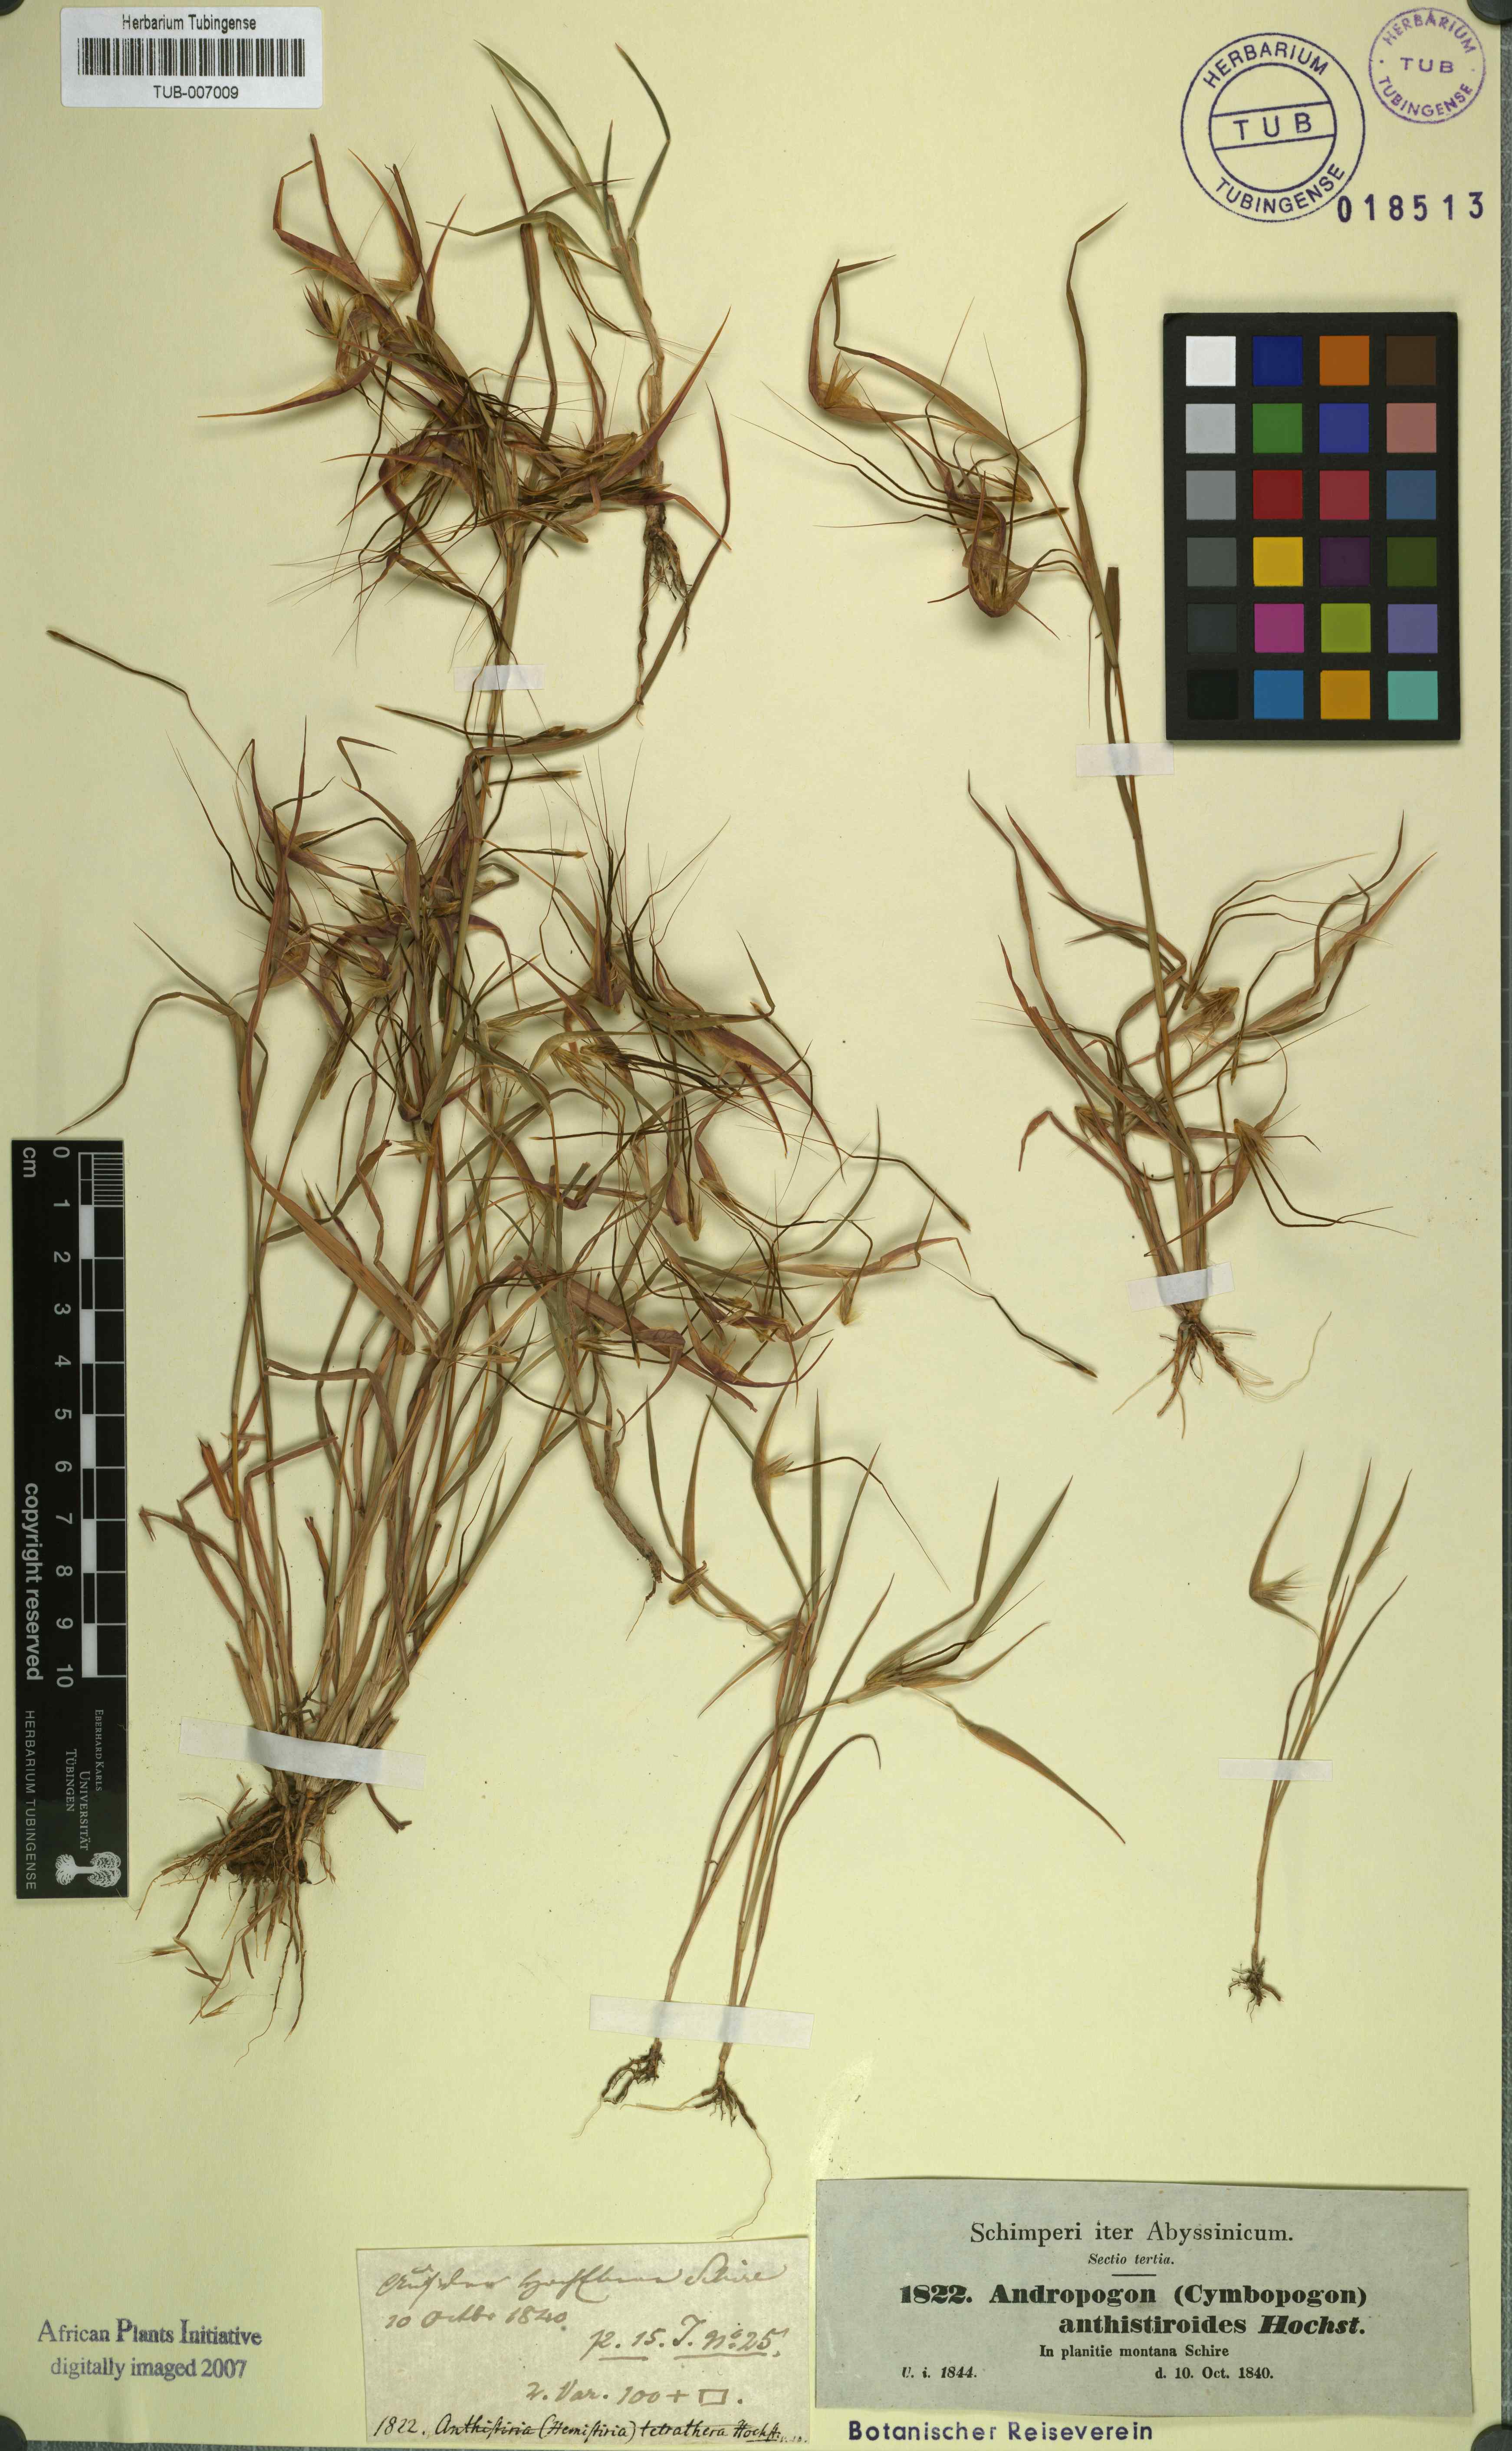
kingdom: Plantae
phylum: Tracheophyta
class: Liliopsida
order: Poales
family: Poaceae
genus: Andropogon
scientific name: Andropogon anthisterioides
